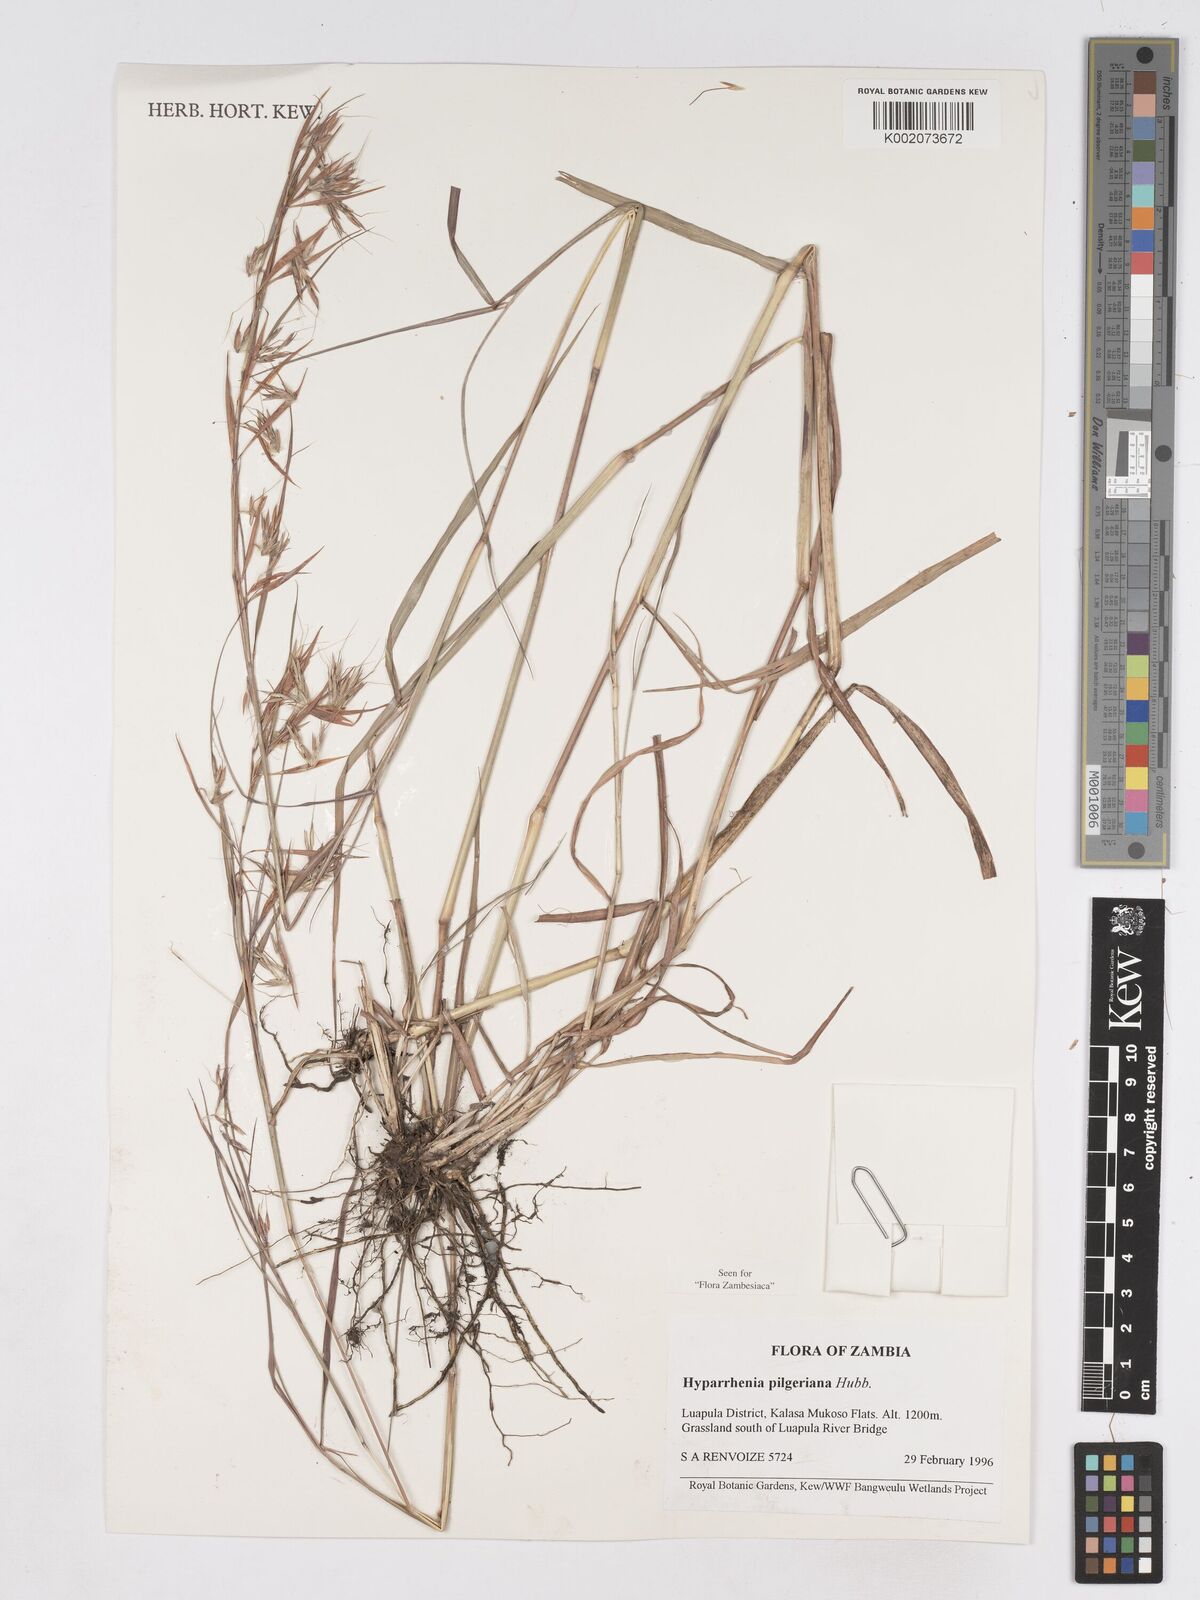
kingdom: Plantae
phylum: Tracheophyta
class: Liliopsida
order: Poales
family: Poaceae
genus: Hyparrhenia
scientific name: Hyparrhenia pilgeriana
